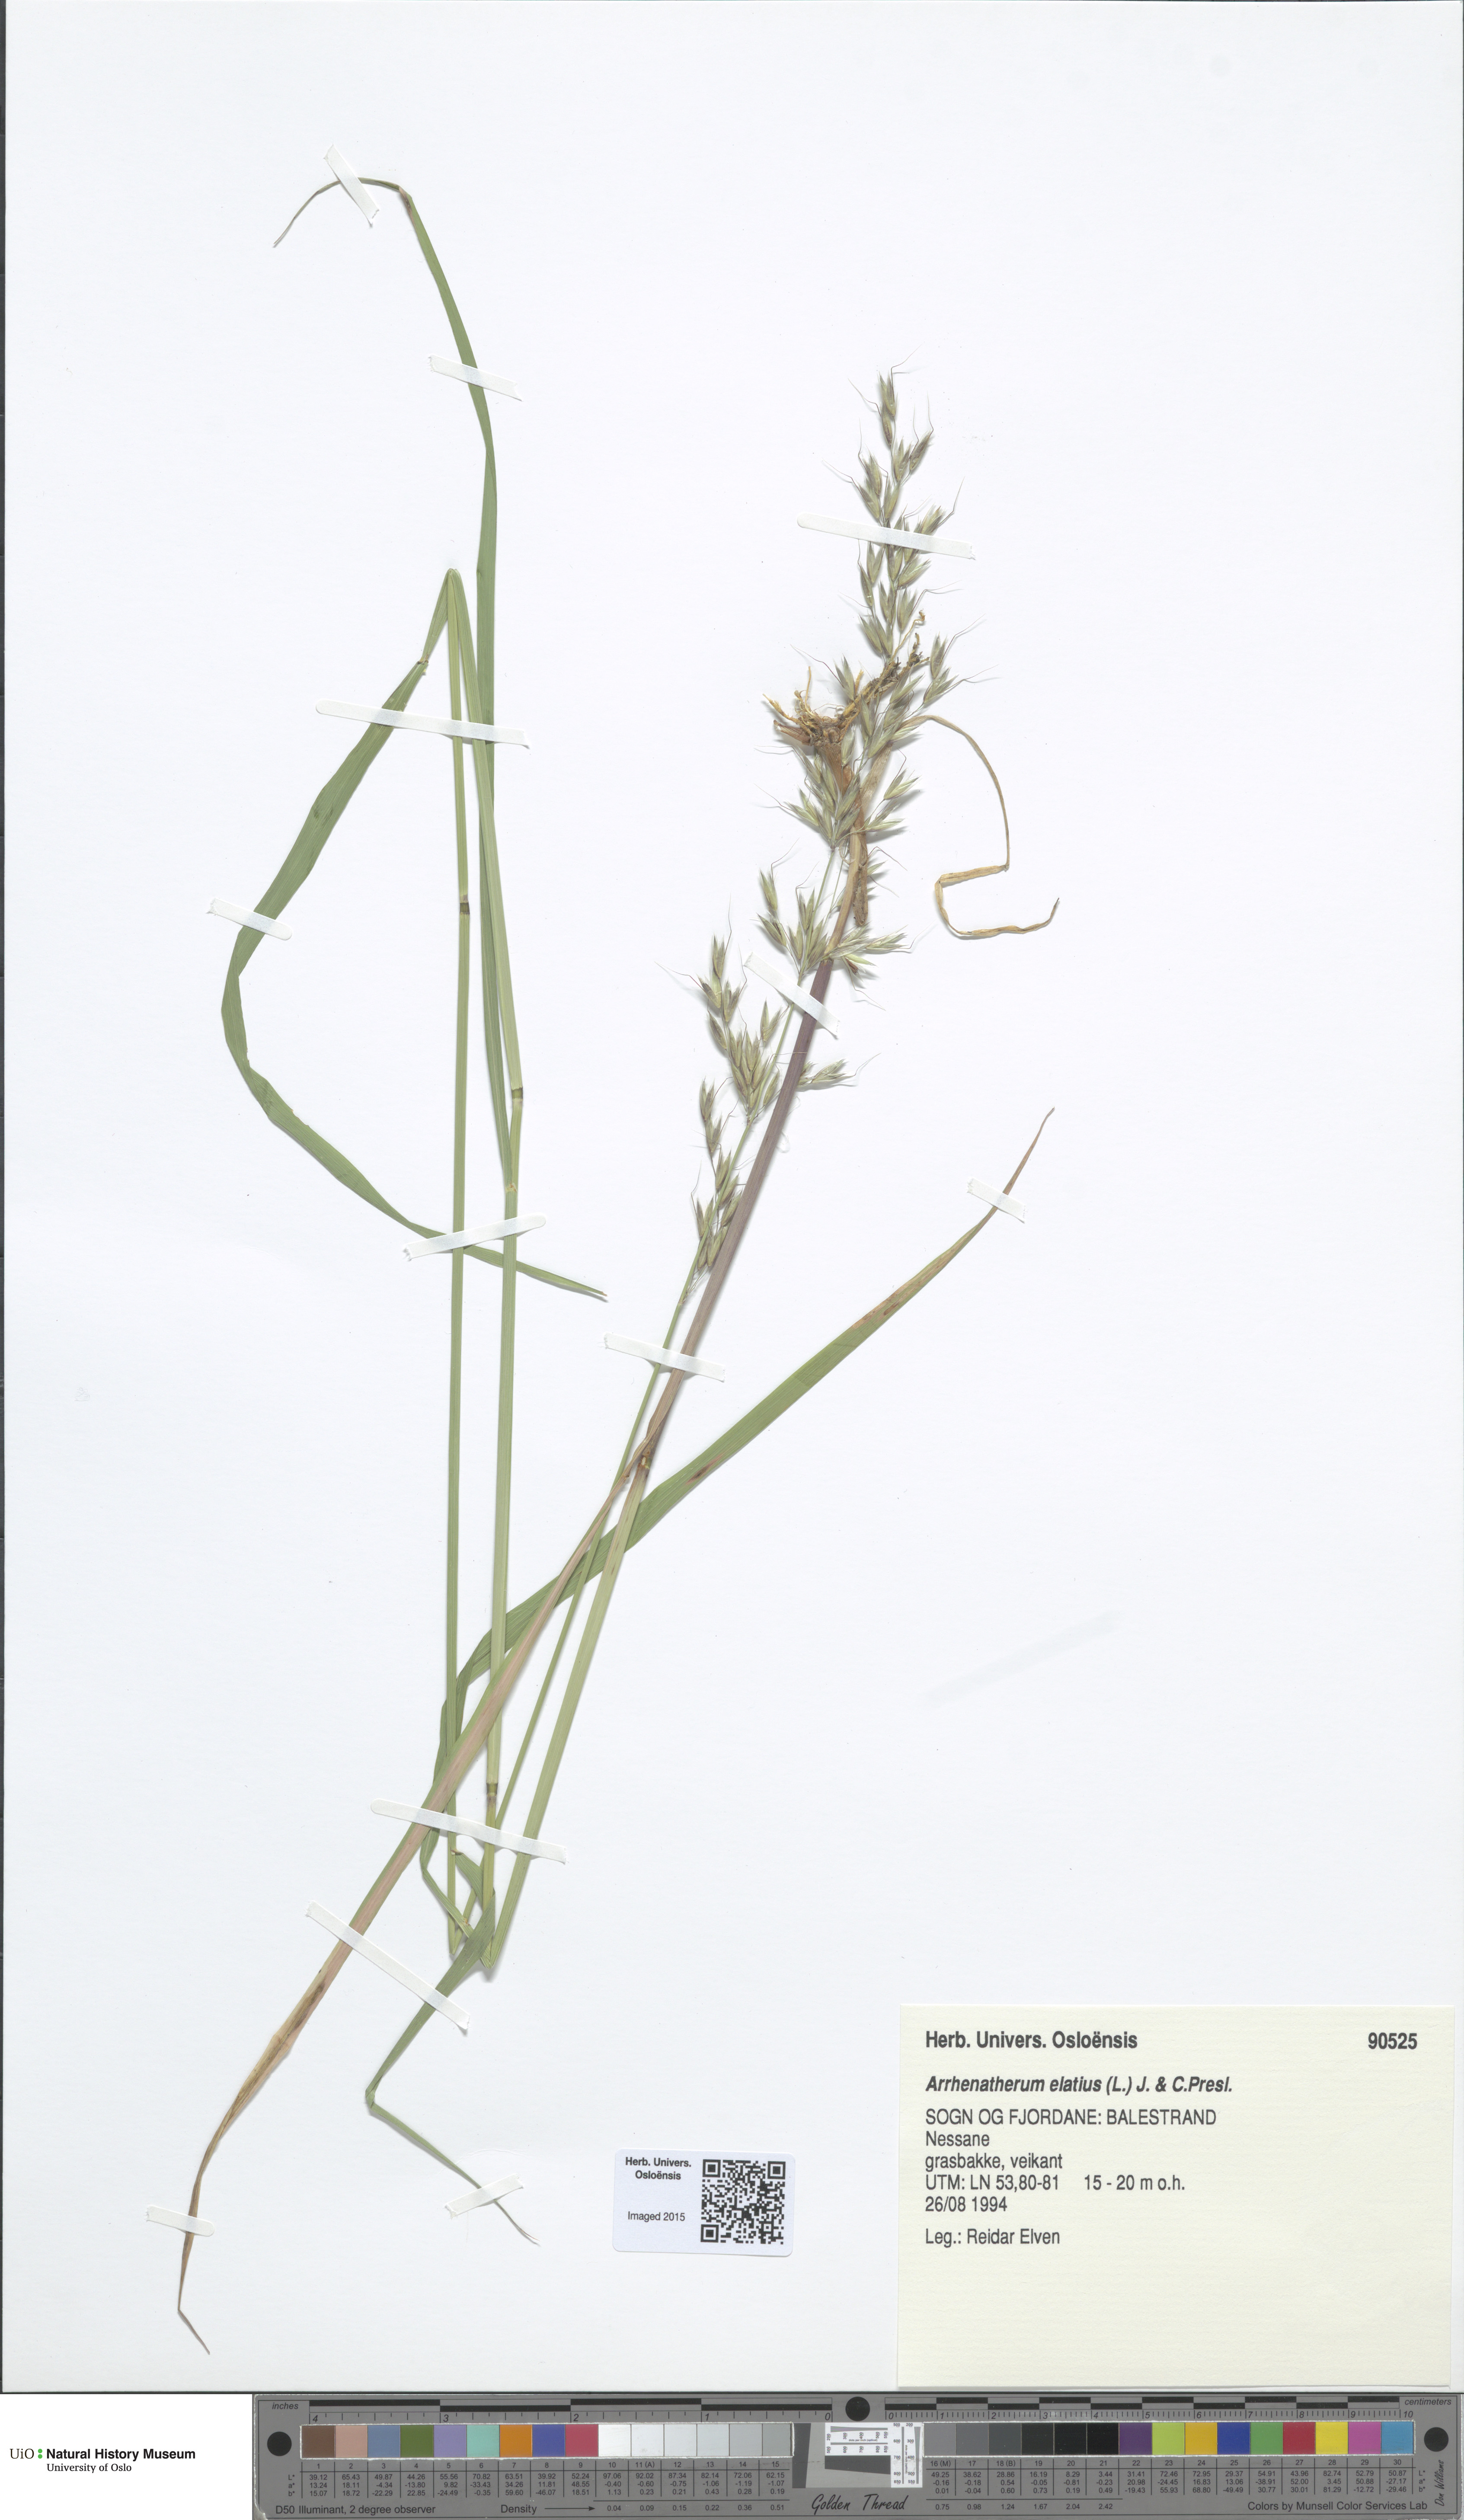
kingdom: Plantae
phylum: Tracheophyta
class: Liliopsida
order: Poales
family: Poaceae
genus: Arrhenatherum
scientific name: Arrhenatherum elatius
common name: Tall oatgrass
